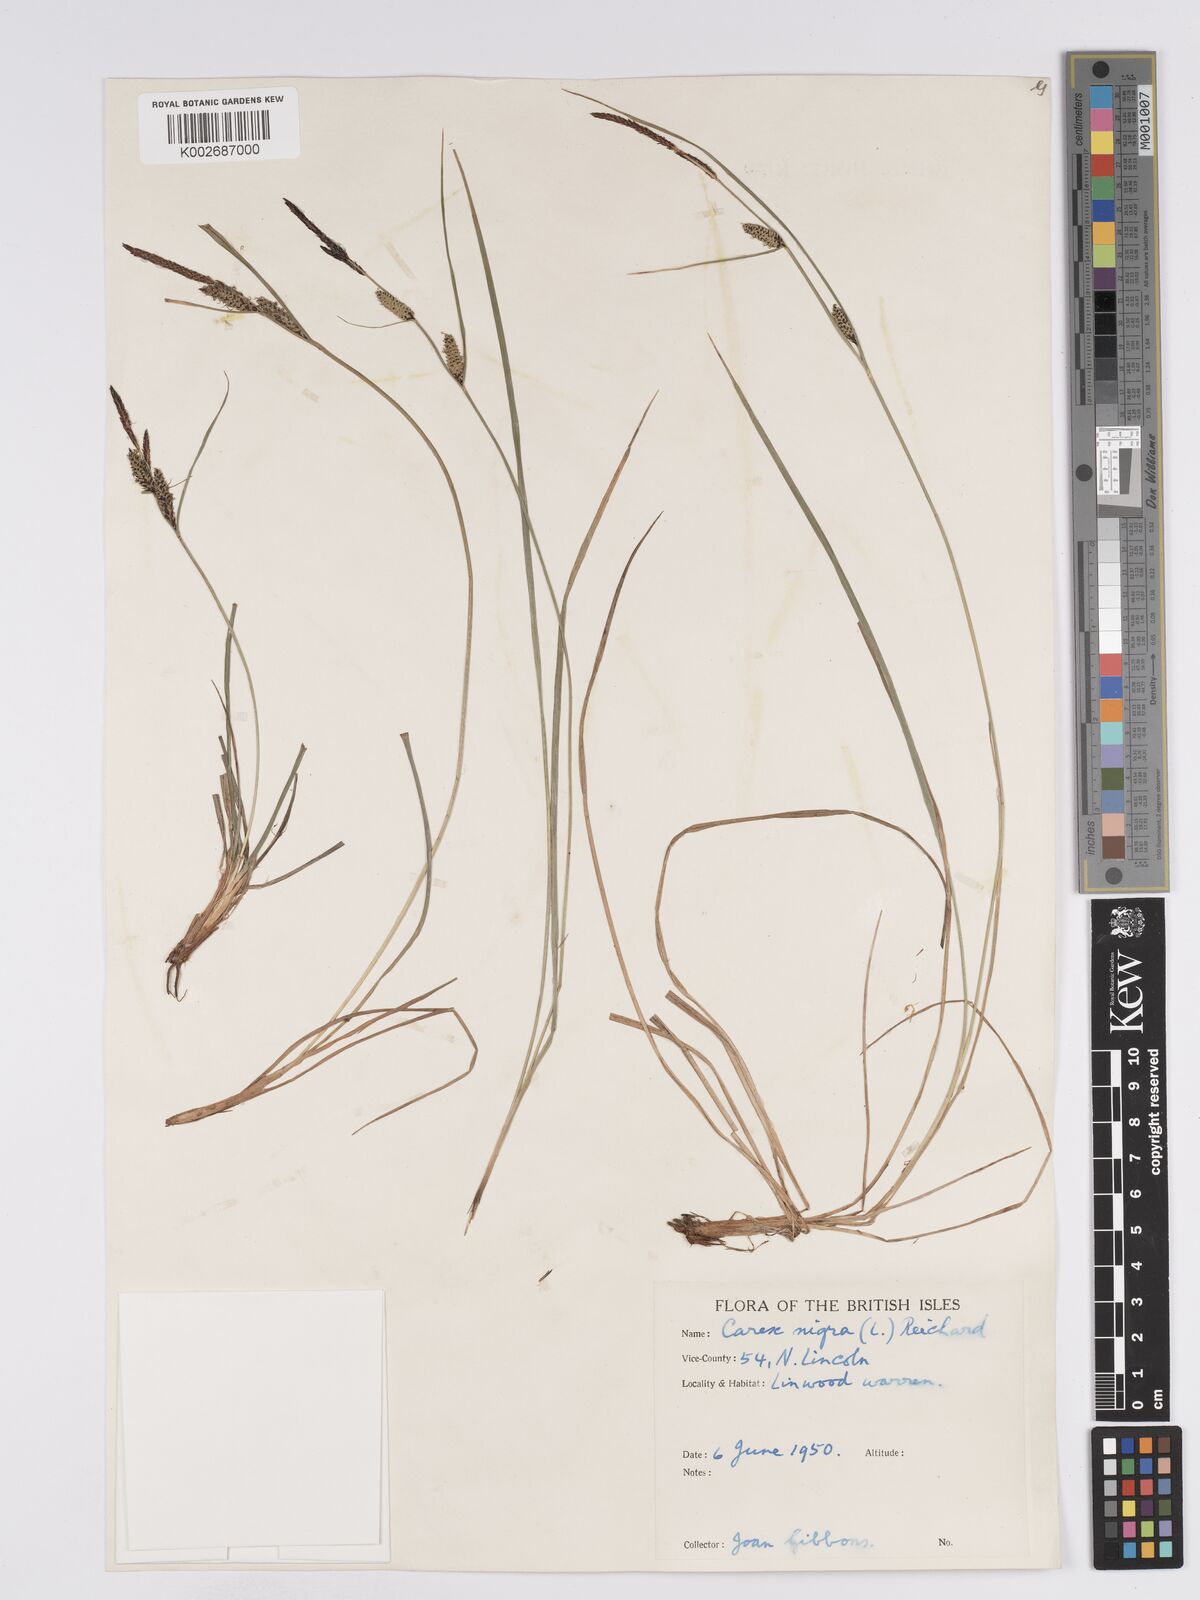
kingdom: Plantae
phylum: Tracheophyta
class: Liliopsida
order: Poales
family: Cyperaceae
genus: Carex
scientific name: Carex nigra
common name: Common sedge
